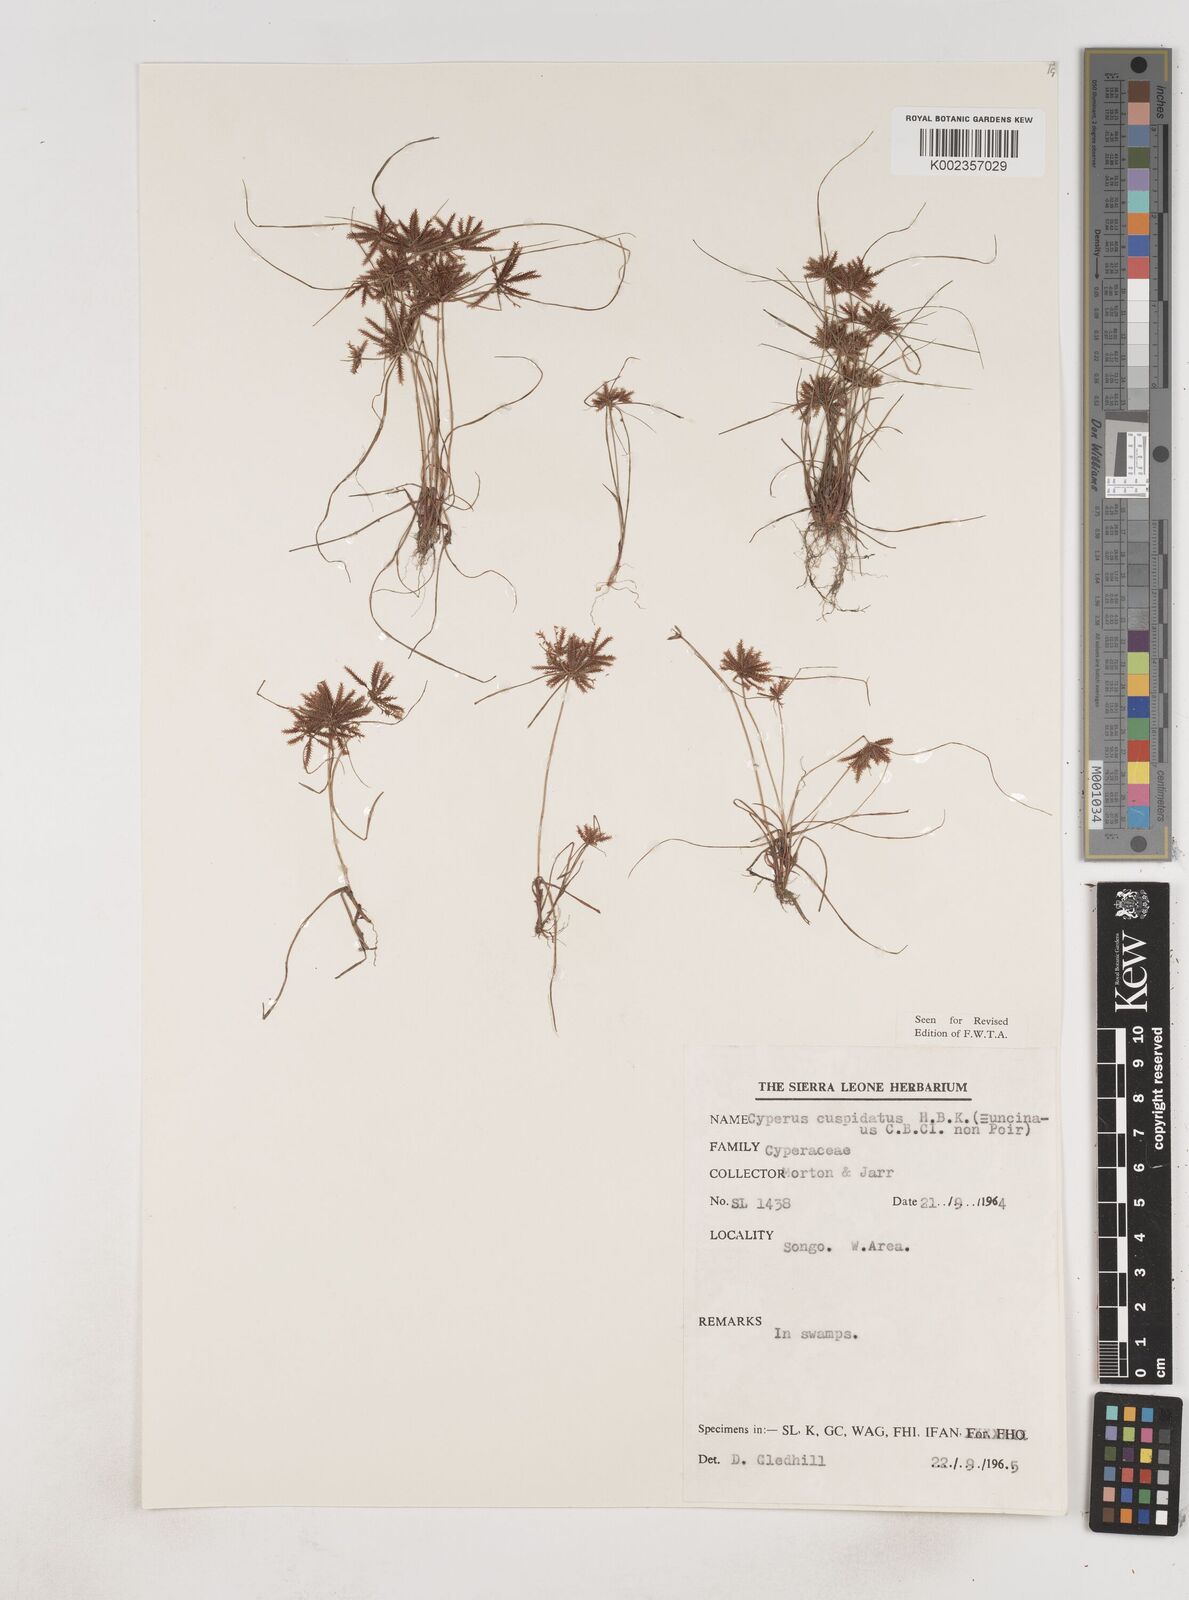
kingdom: Plantae
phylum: Tracheophyta
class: Liliopsida
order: Poales
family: Cyperaceae
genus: Cyperus
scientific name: Cyperus
